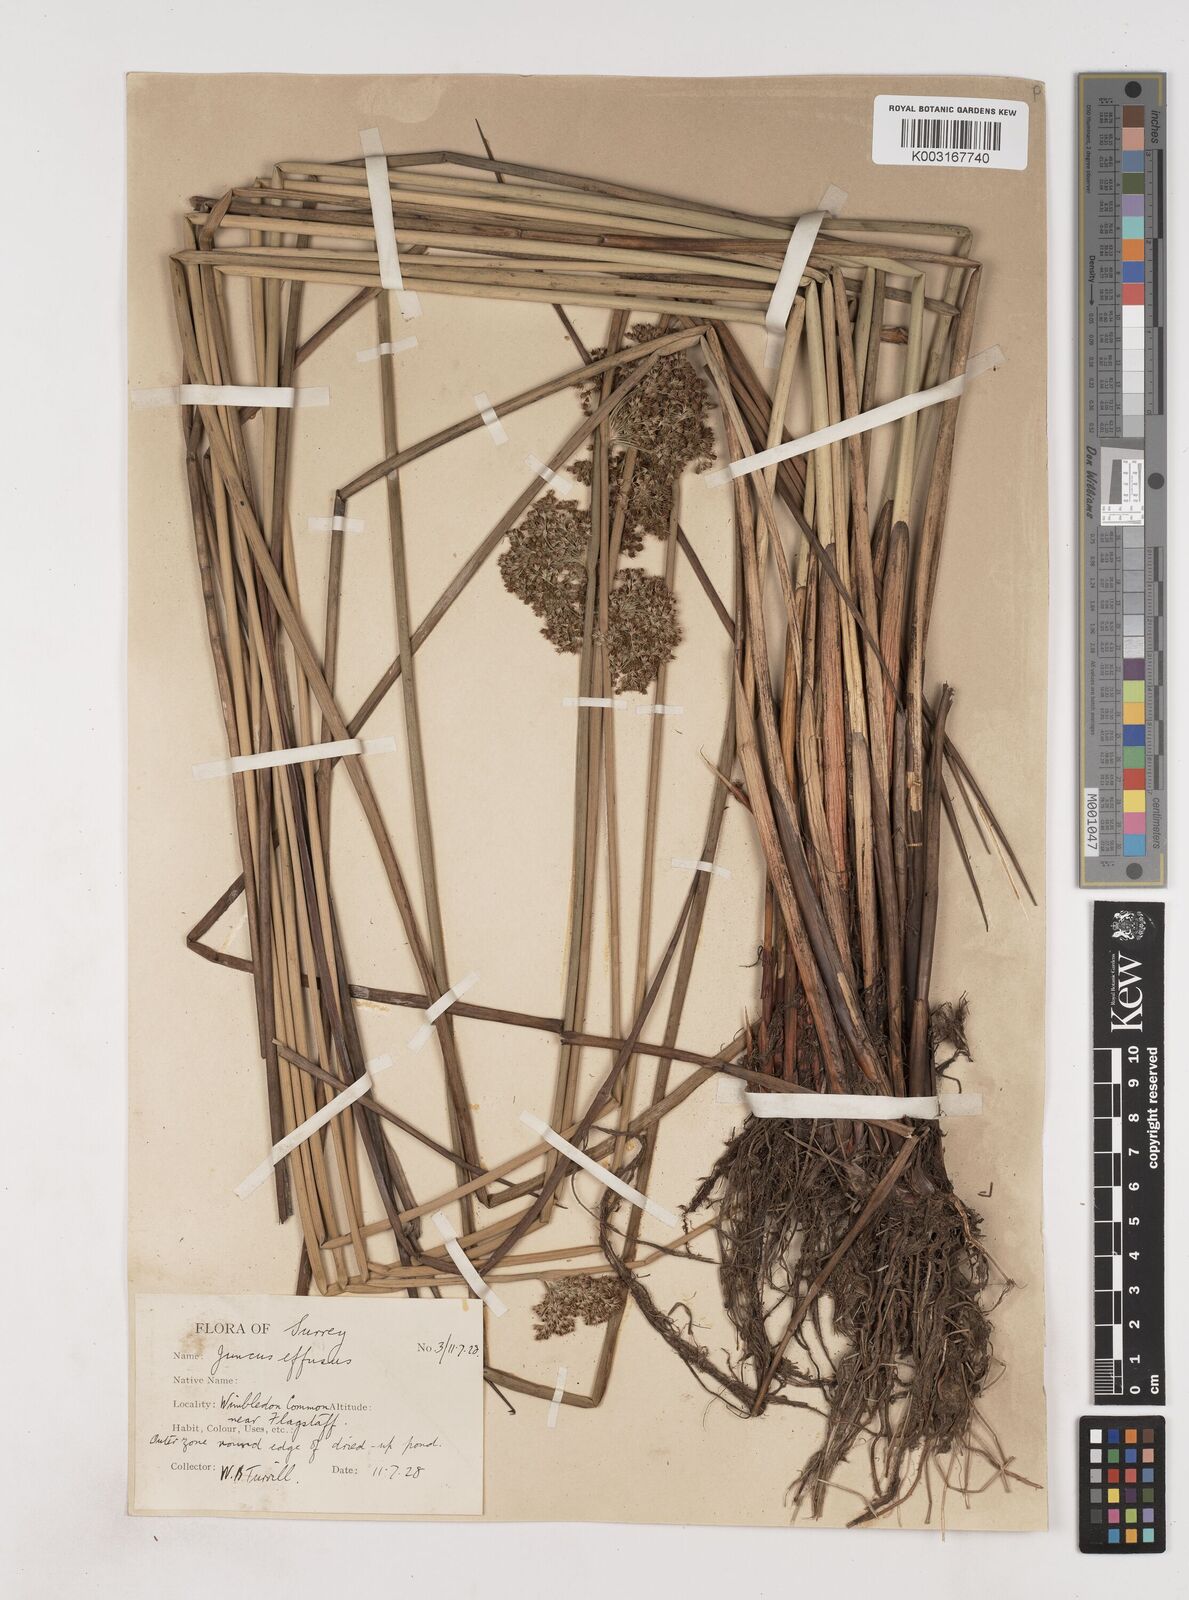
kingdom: Plantae
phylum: Tracheophyta
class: Liliopsida
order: Poales
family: Juncaceae
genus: Juncus
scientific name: Juncus effusus
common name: Soft rush
